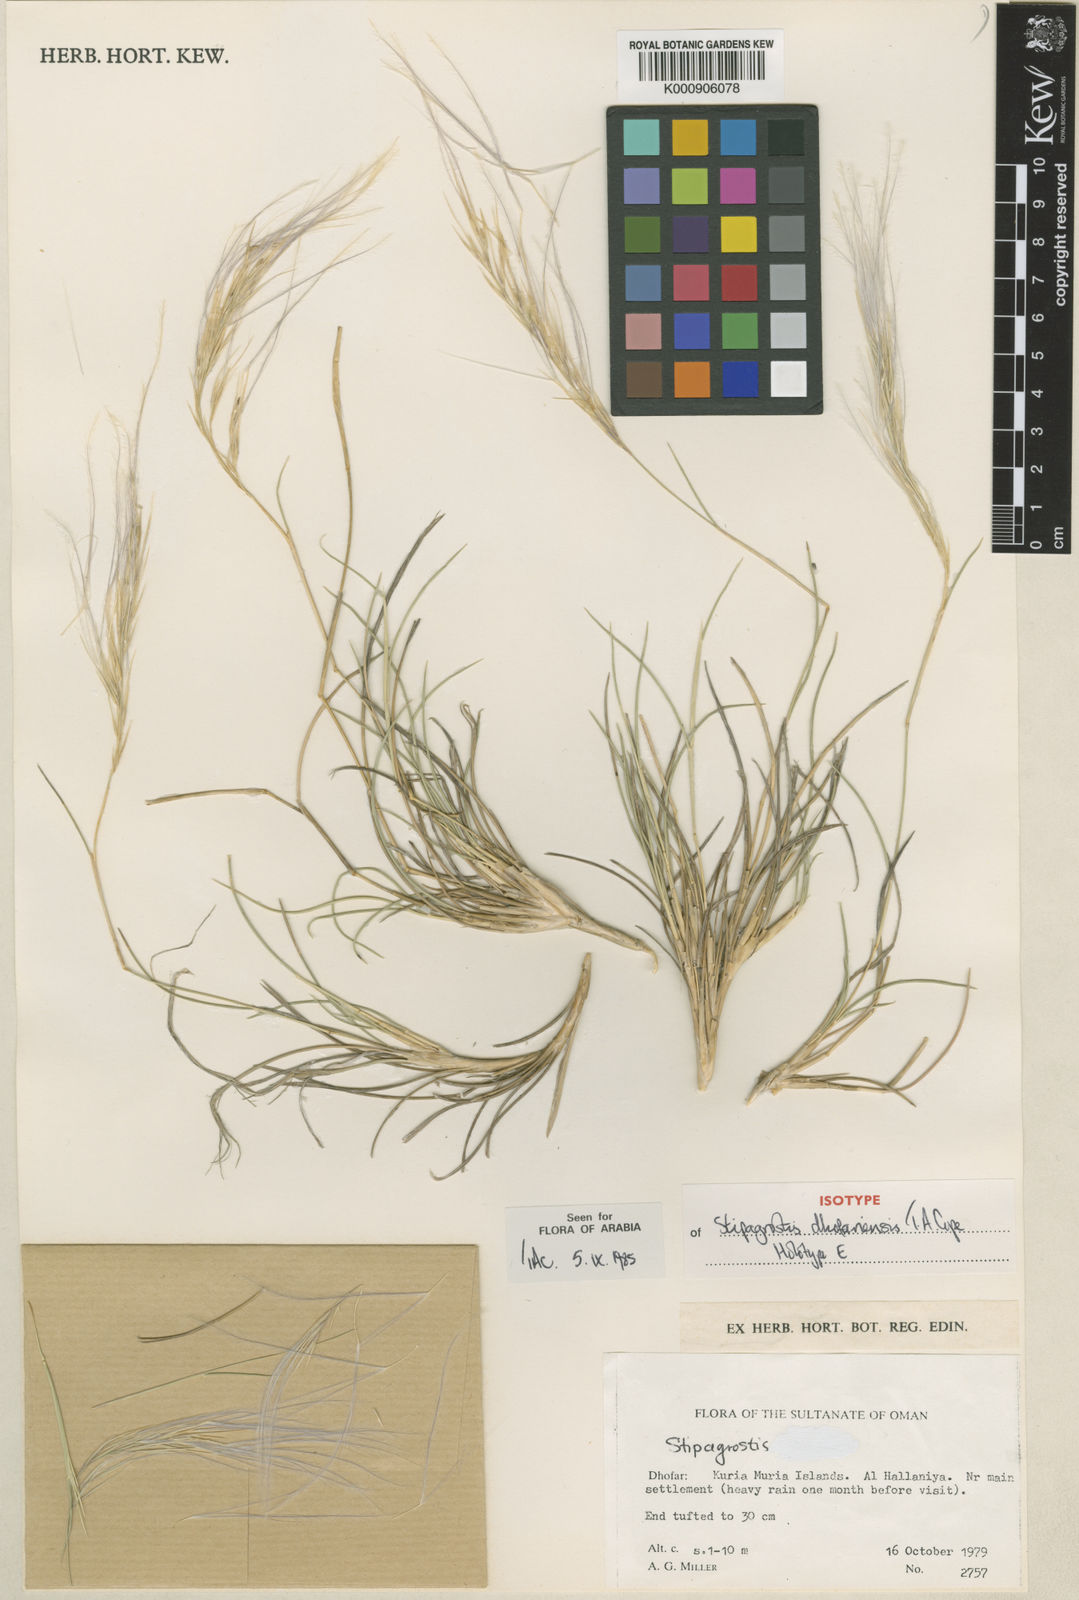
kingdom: Plantae
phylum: Tracheophyta
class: Liliopsida
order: Poales
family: Poaceae
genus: Stipagrostis
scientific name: Stipagrostis dhofariensis
